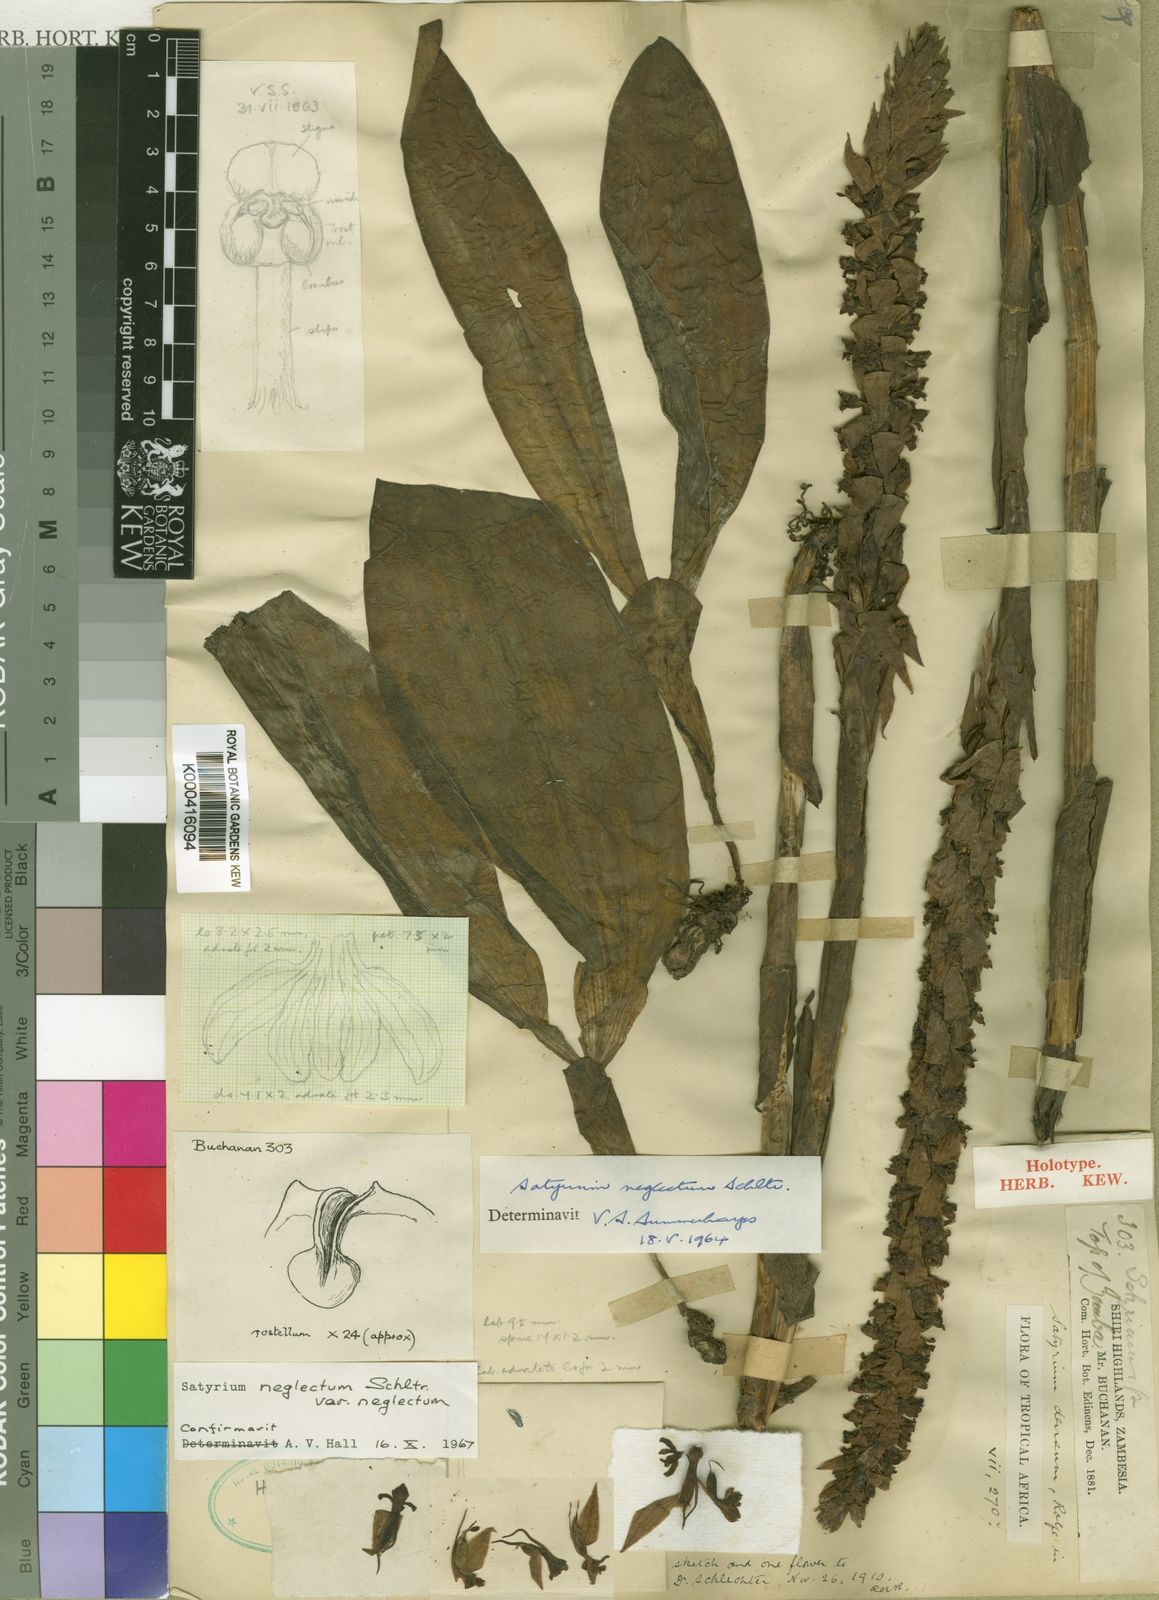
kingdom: Plantae
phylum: Tracheophyta
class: Liliopsida
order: Asparagales
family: Orchidaceae
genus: Satyrium
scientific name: Satyrium neglectum
